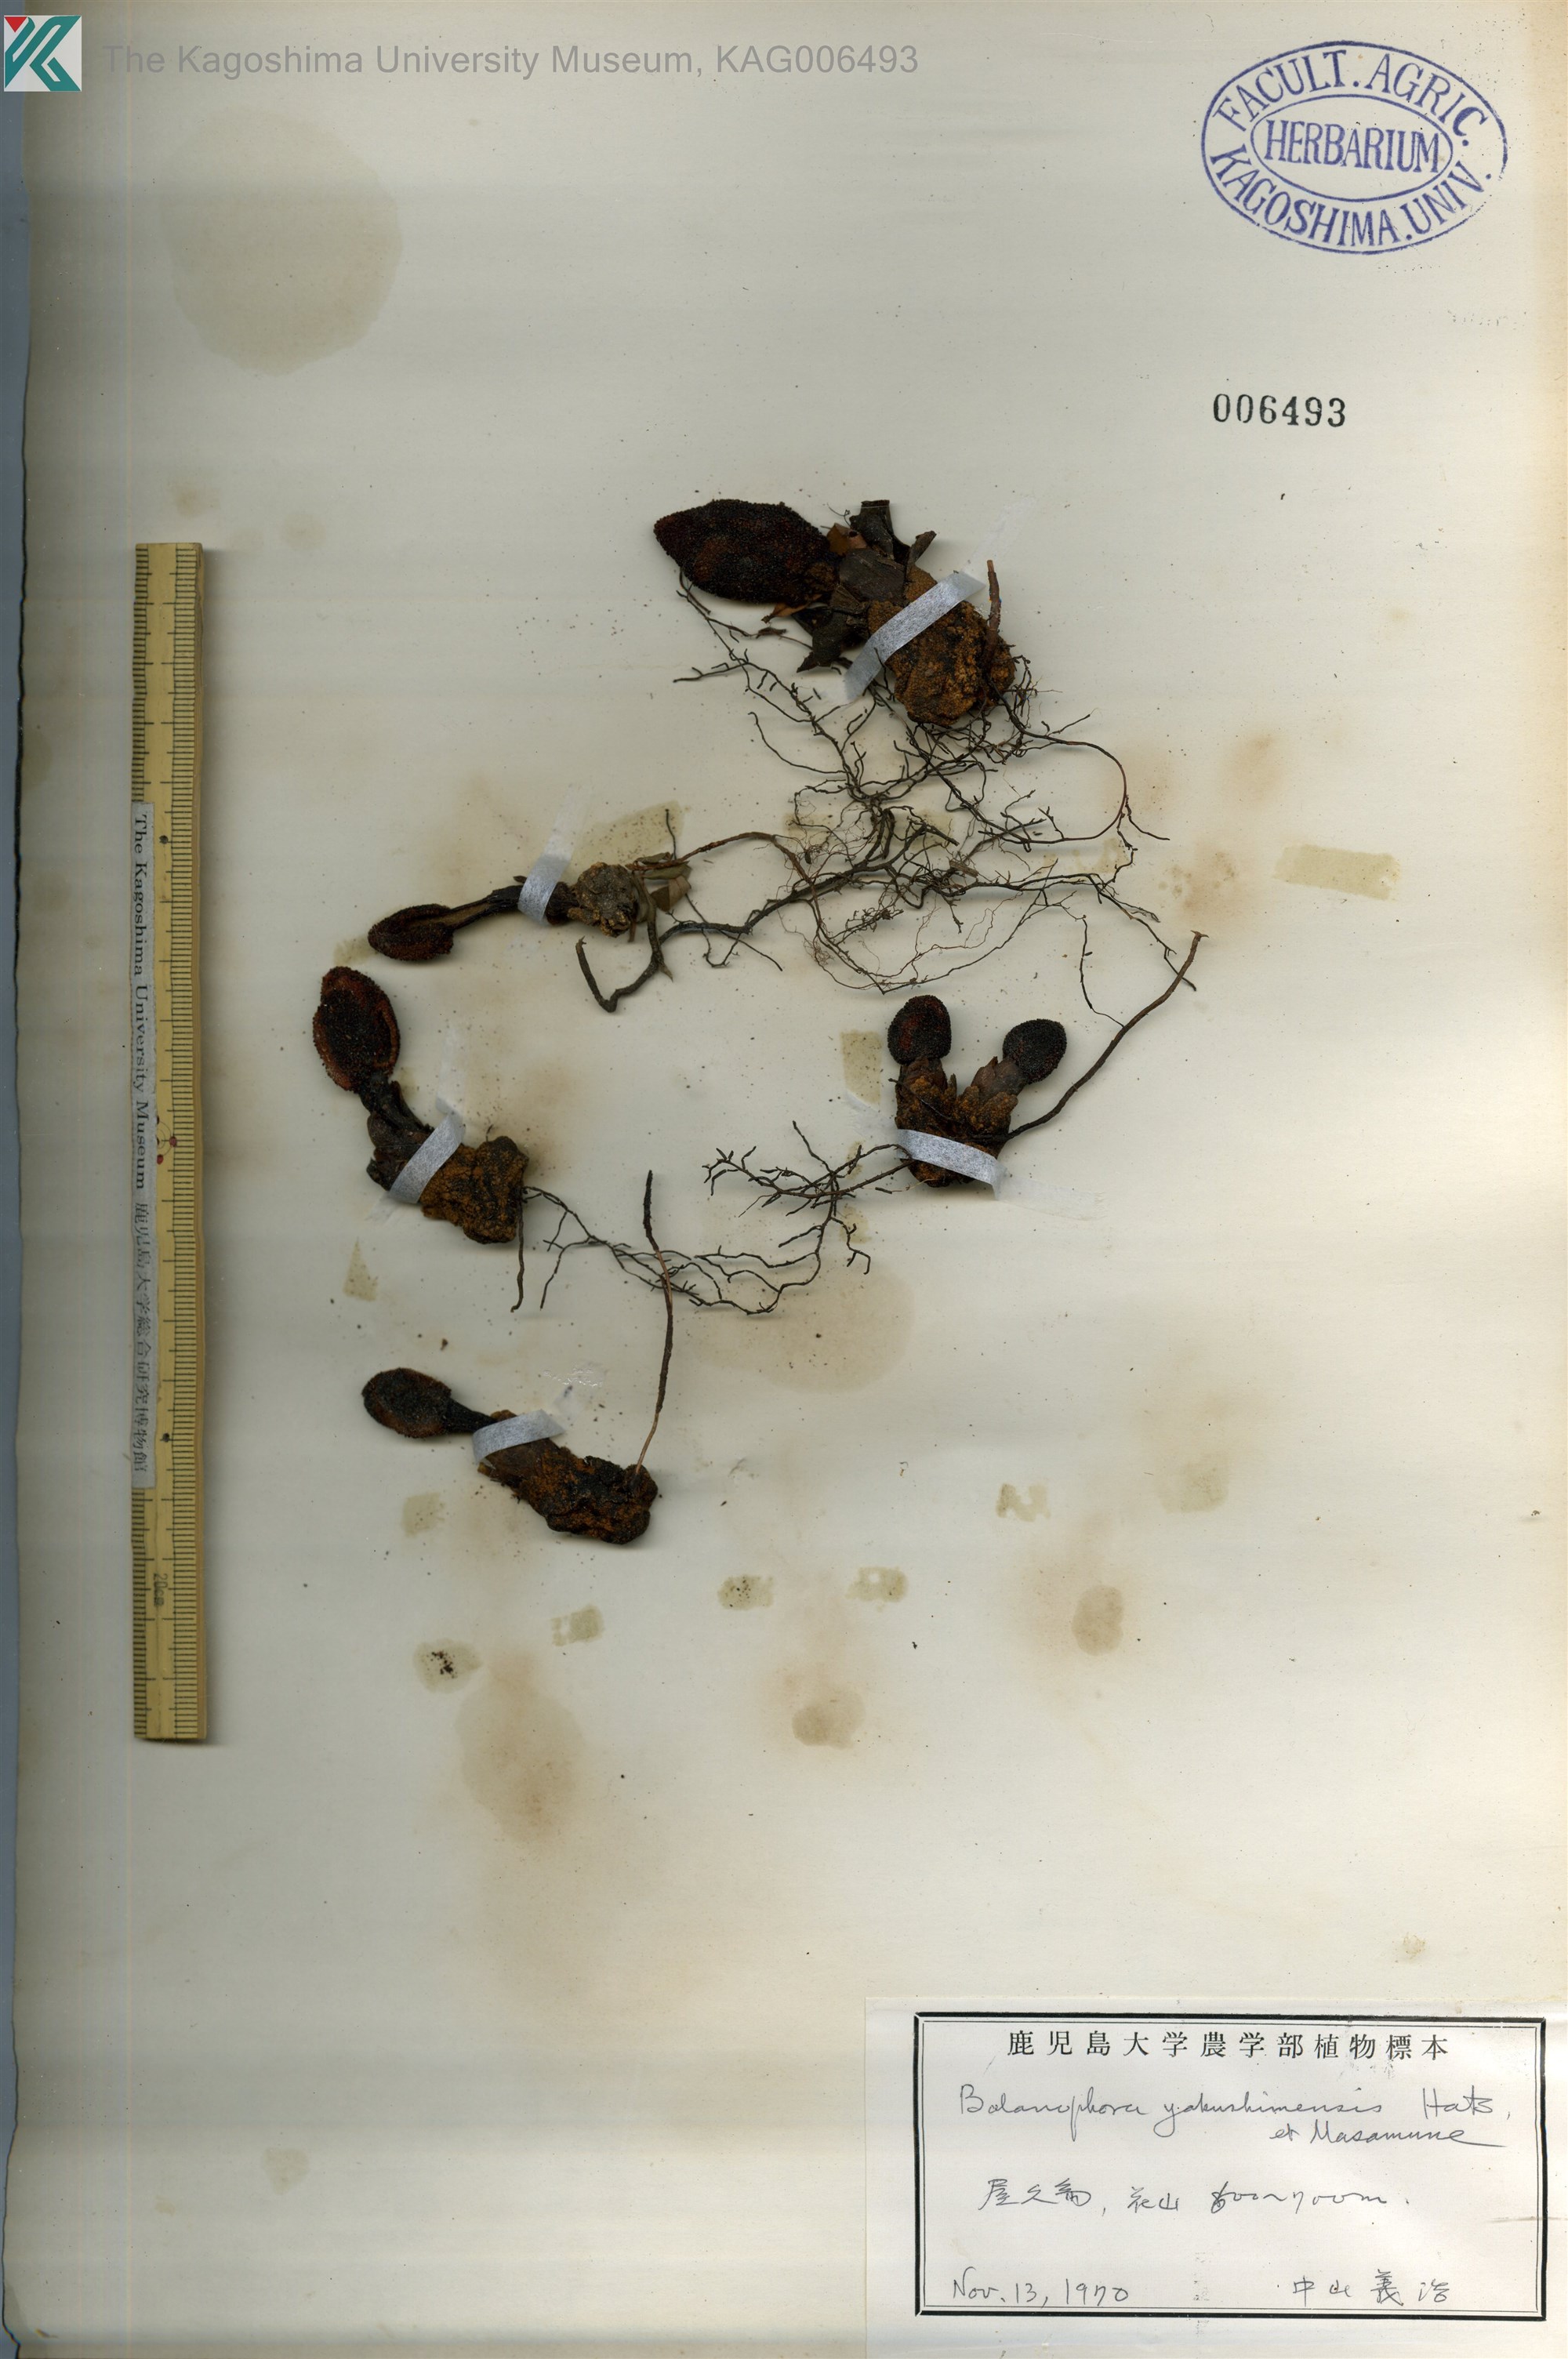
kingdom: Plantae
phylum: Tracheophyta
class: Magnoliopsida
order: Santalales
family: Balanophoraceae
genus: Balanophora
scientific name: Balanophora yakushimensis
